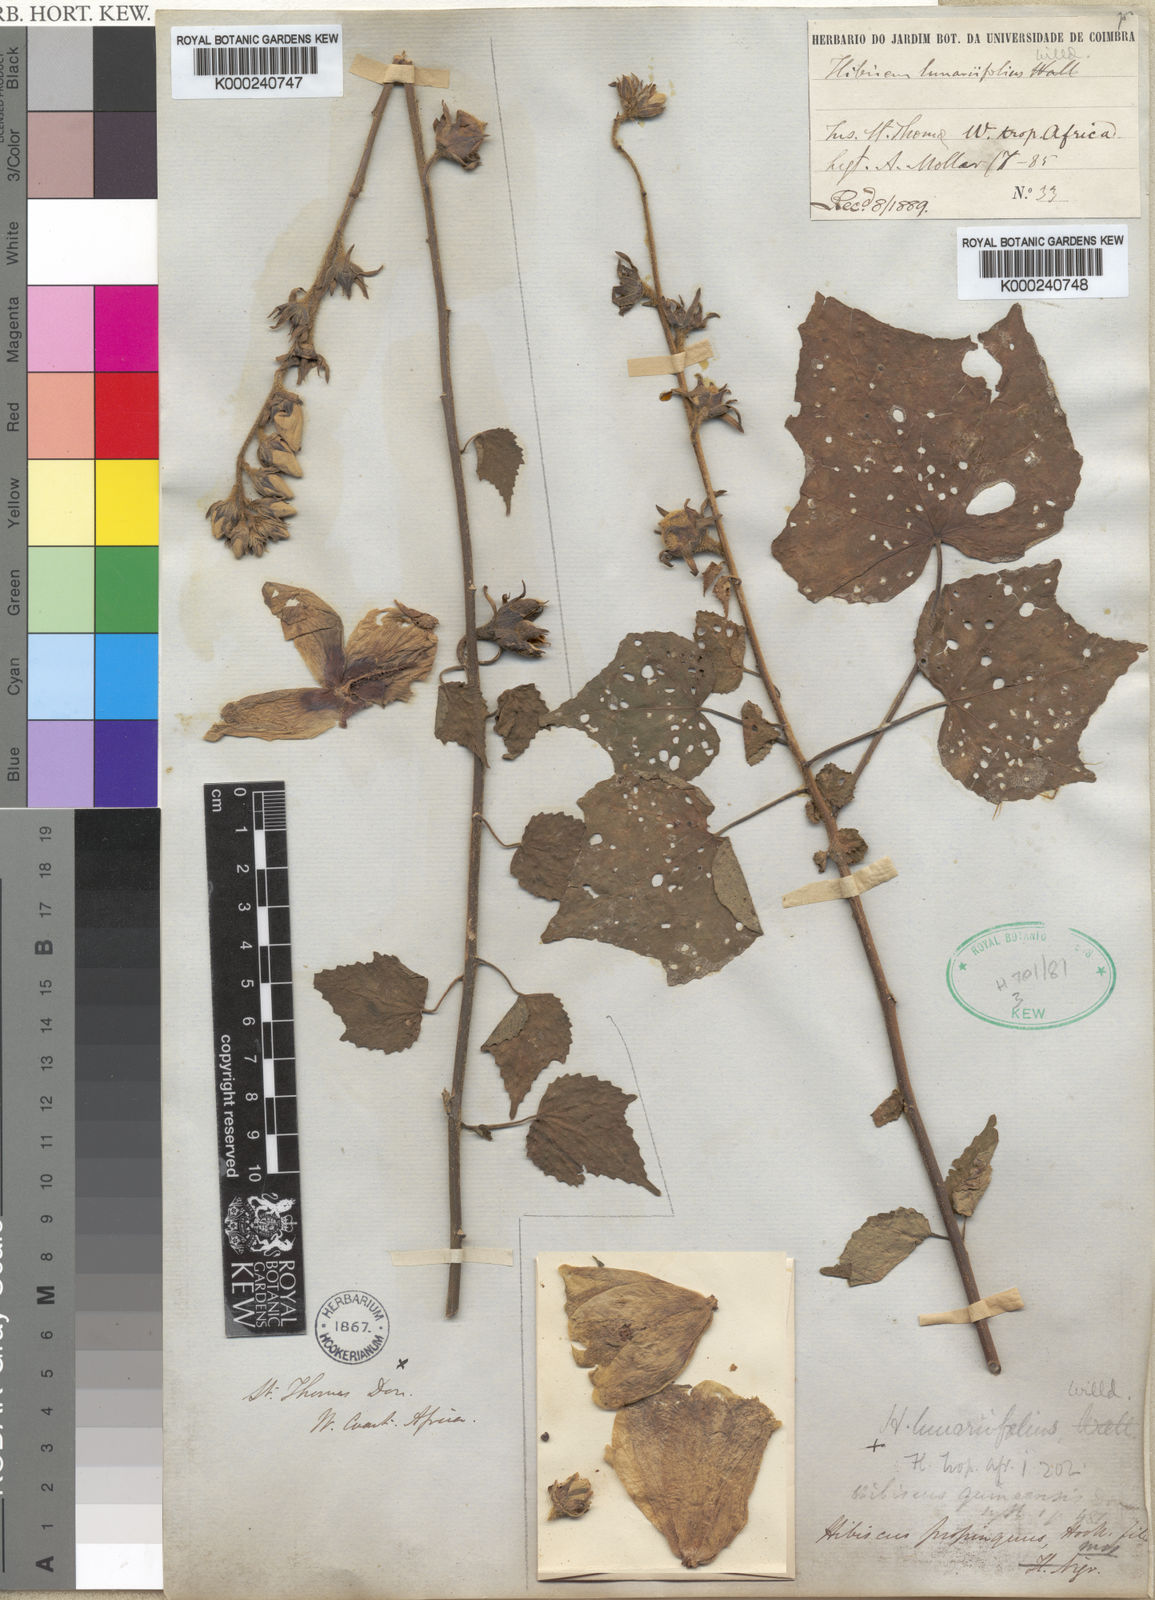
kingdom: Plantae
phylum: Tracheophyta
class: Magnoliopsida
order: Malvales
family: Malvaceae
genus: Hibiscus
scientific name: Hibiscus donianus
